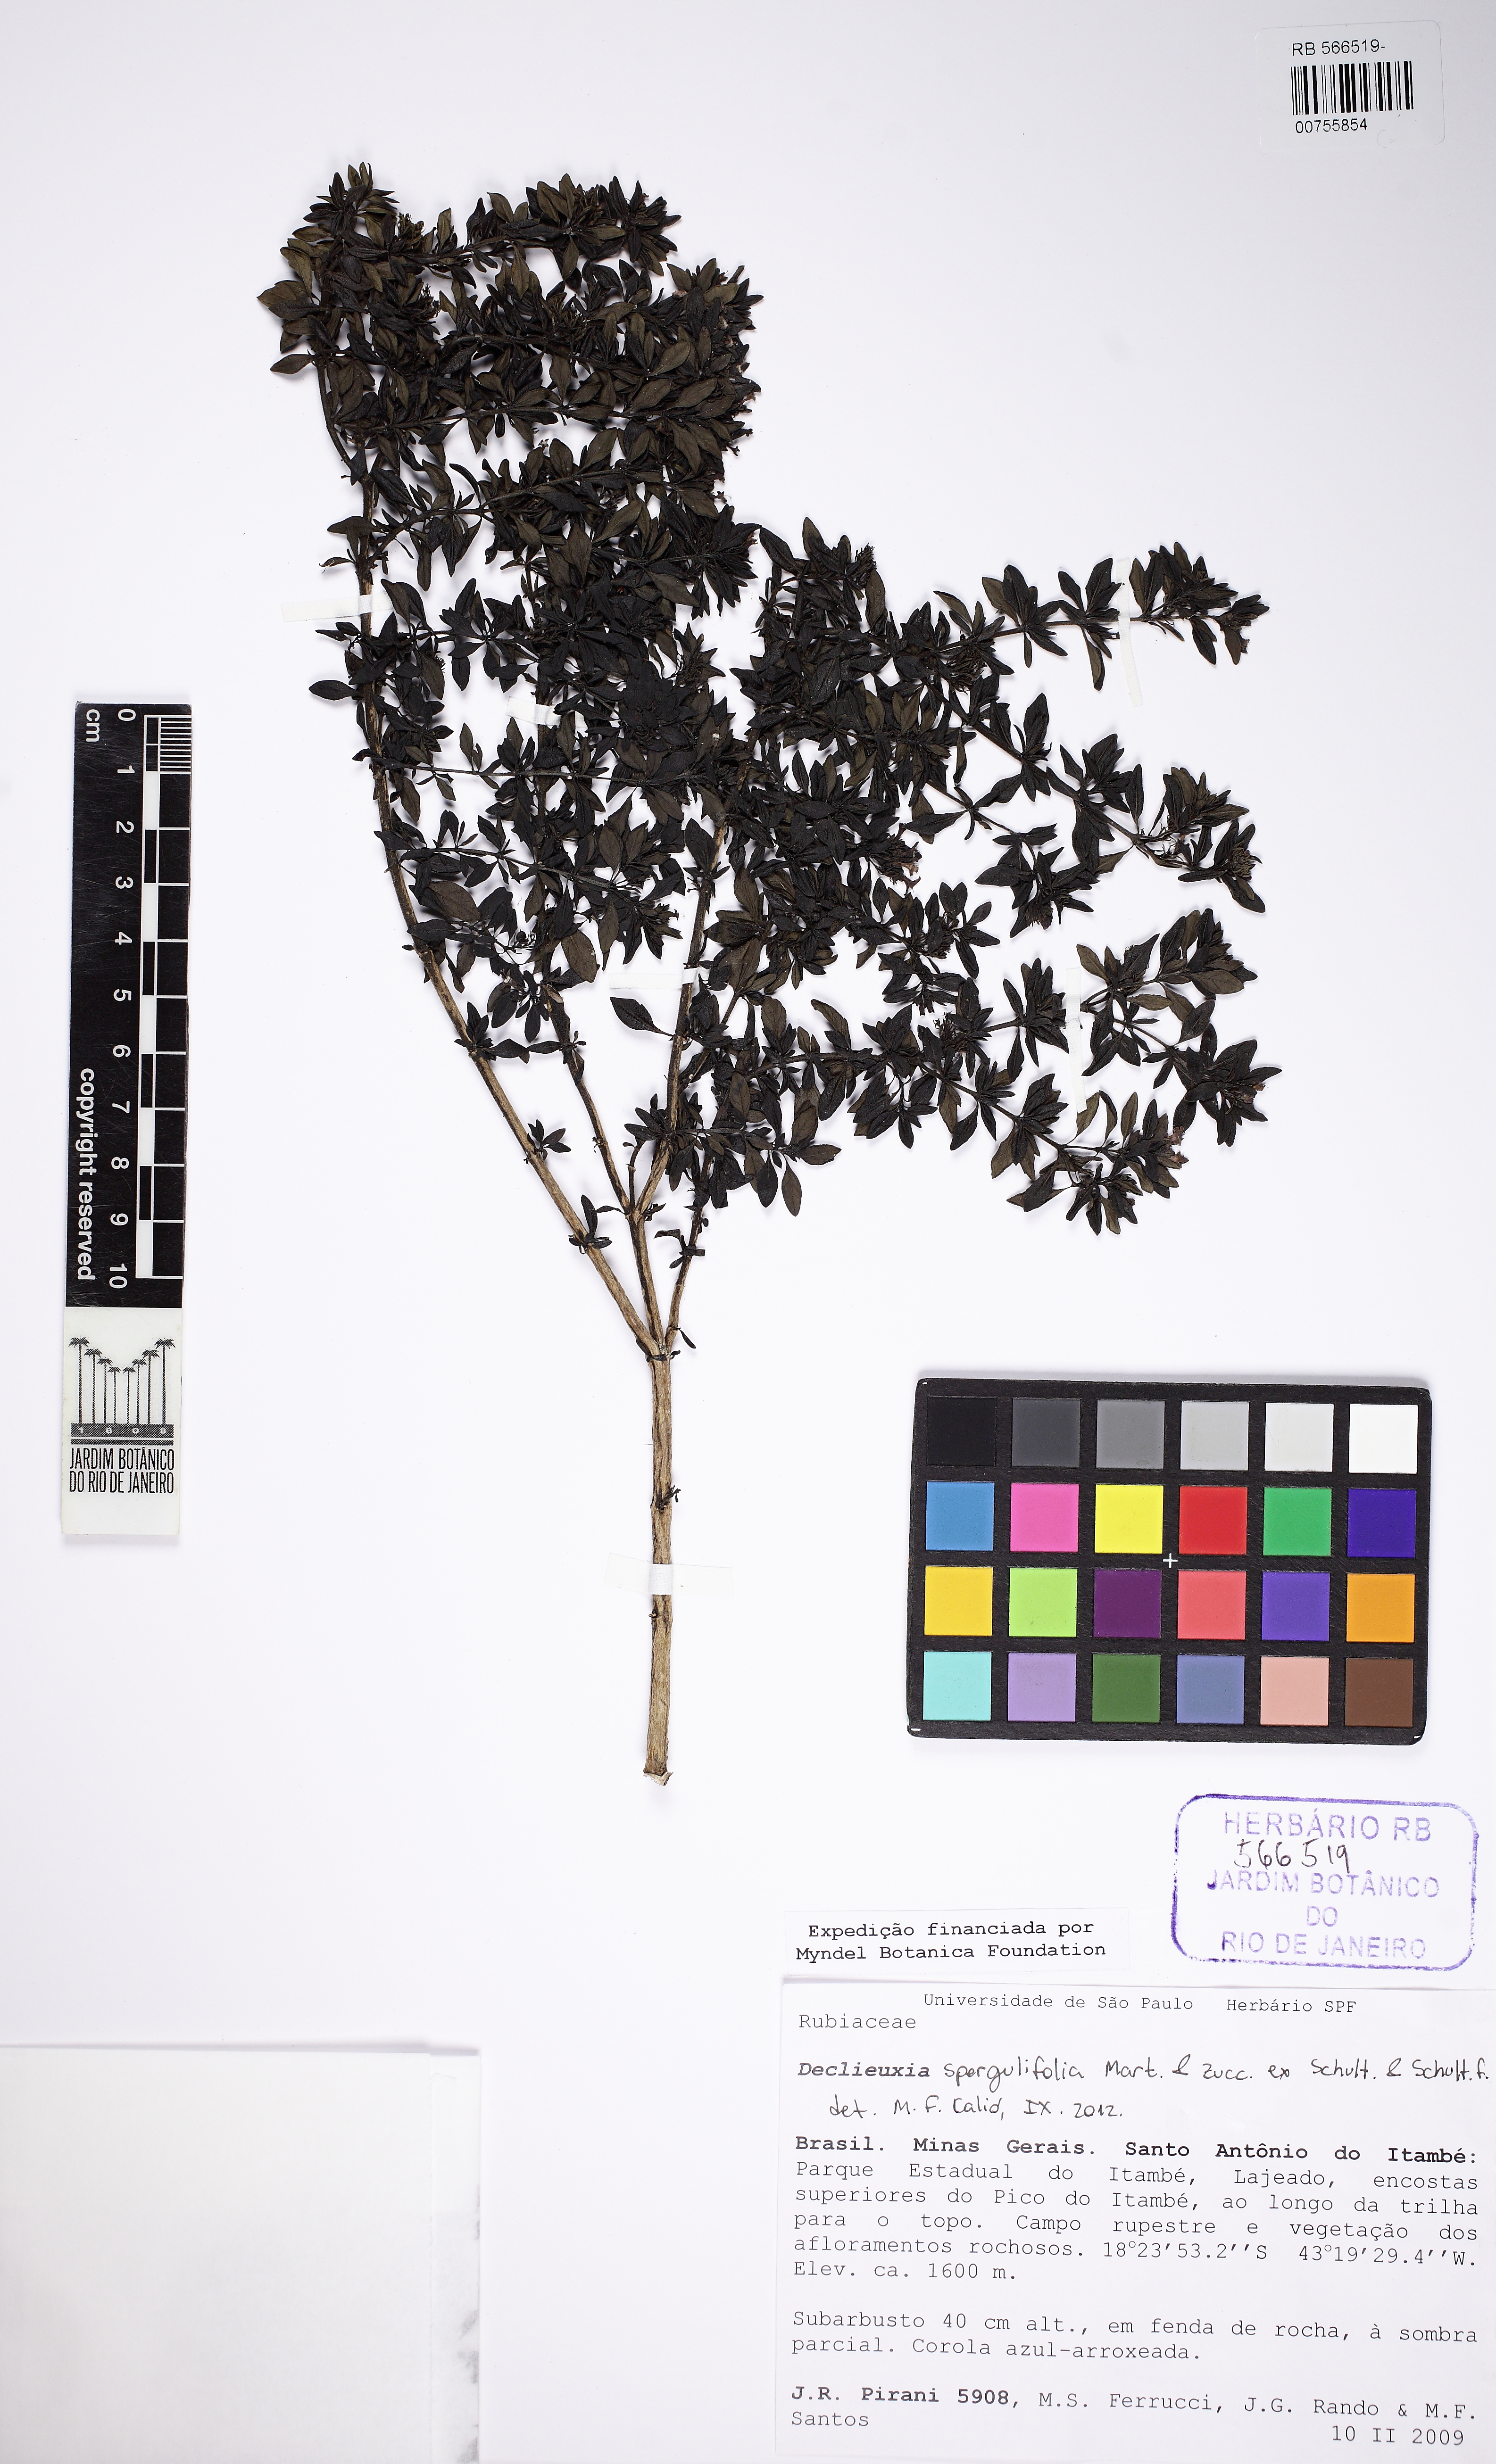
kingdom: Plantae
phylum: Tracheophyta
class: Magnoliopsida
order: Gentianales
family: Rubiaceae
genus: Declieuxia
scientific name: Declieuxia spergulifolia
